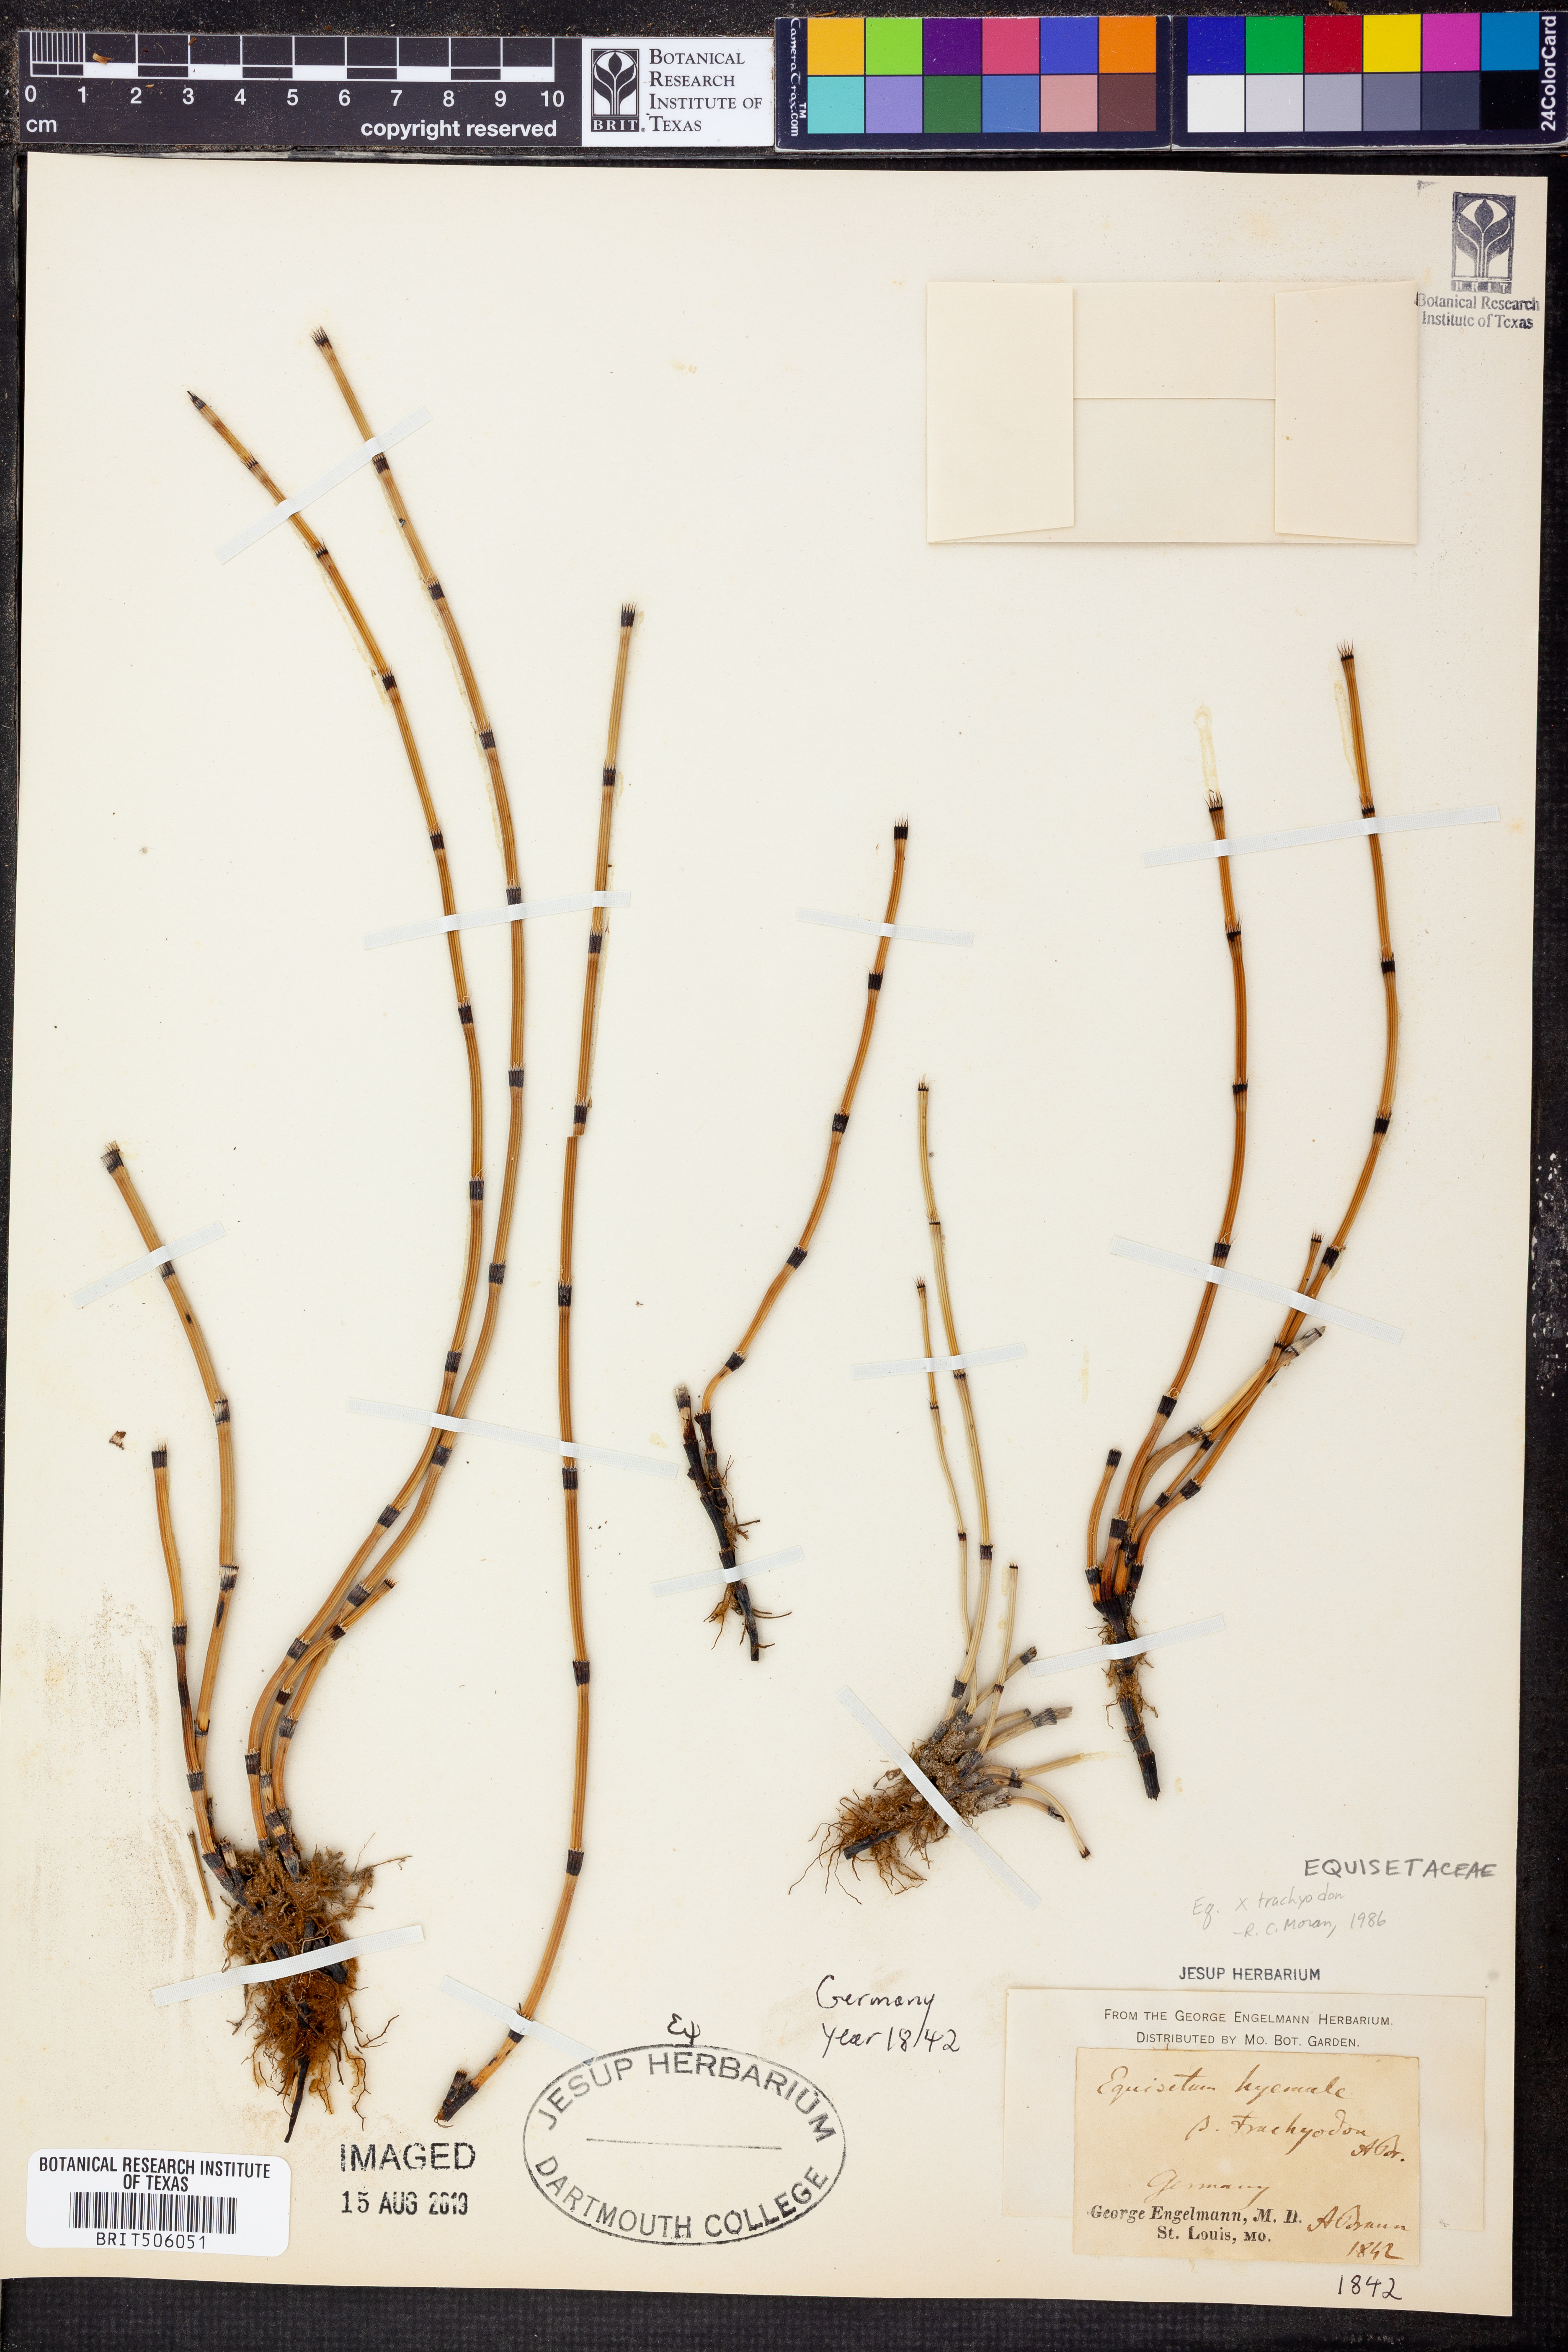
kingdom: Plantae
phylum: Tracheophyta
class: Polypodiopsida
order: Equisetales
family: Equisetaceae
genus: Equisetum
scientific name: Equisetum hyemale
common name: Rough horsetail
